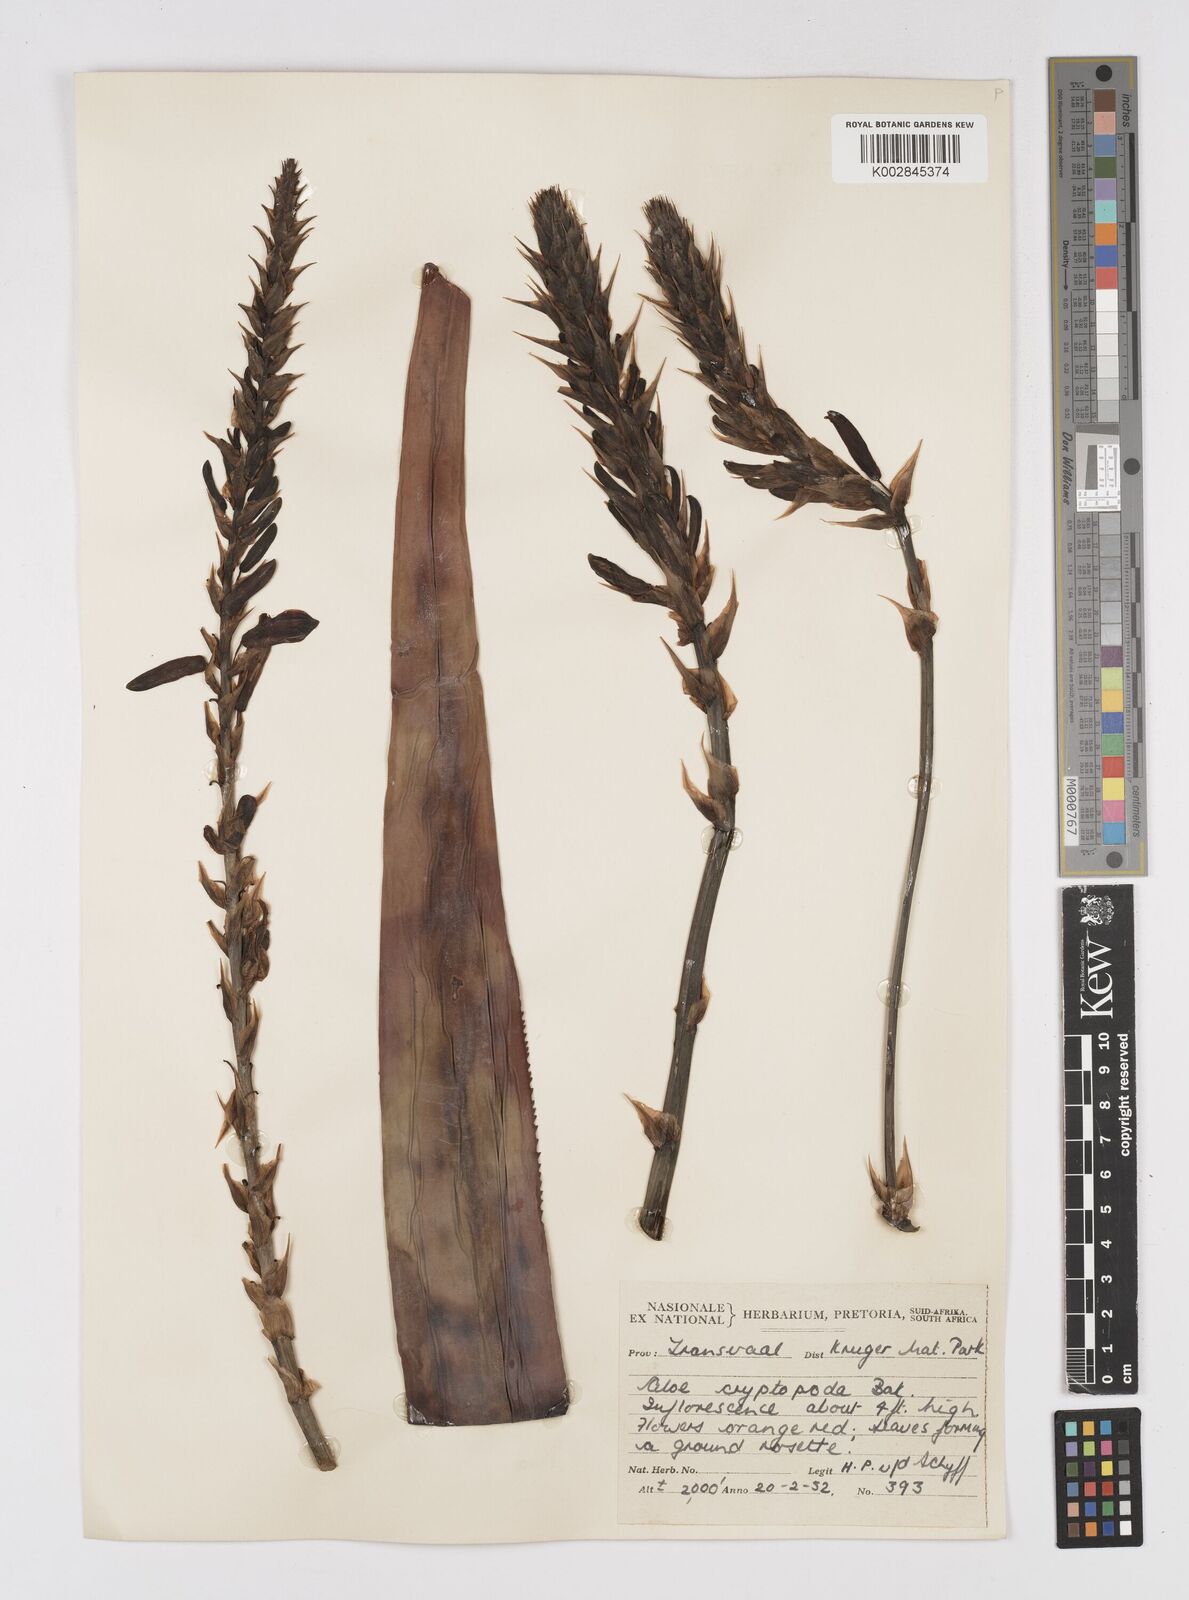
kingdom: Plantae
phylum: Tracheophyta
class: Liliopsida
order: Asparagales
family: Asphodelaceae
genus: Aloe
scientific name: Aloe cryptopoda
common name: Dr. kirk's aloe
